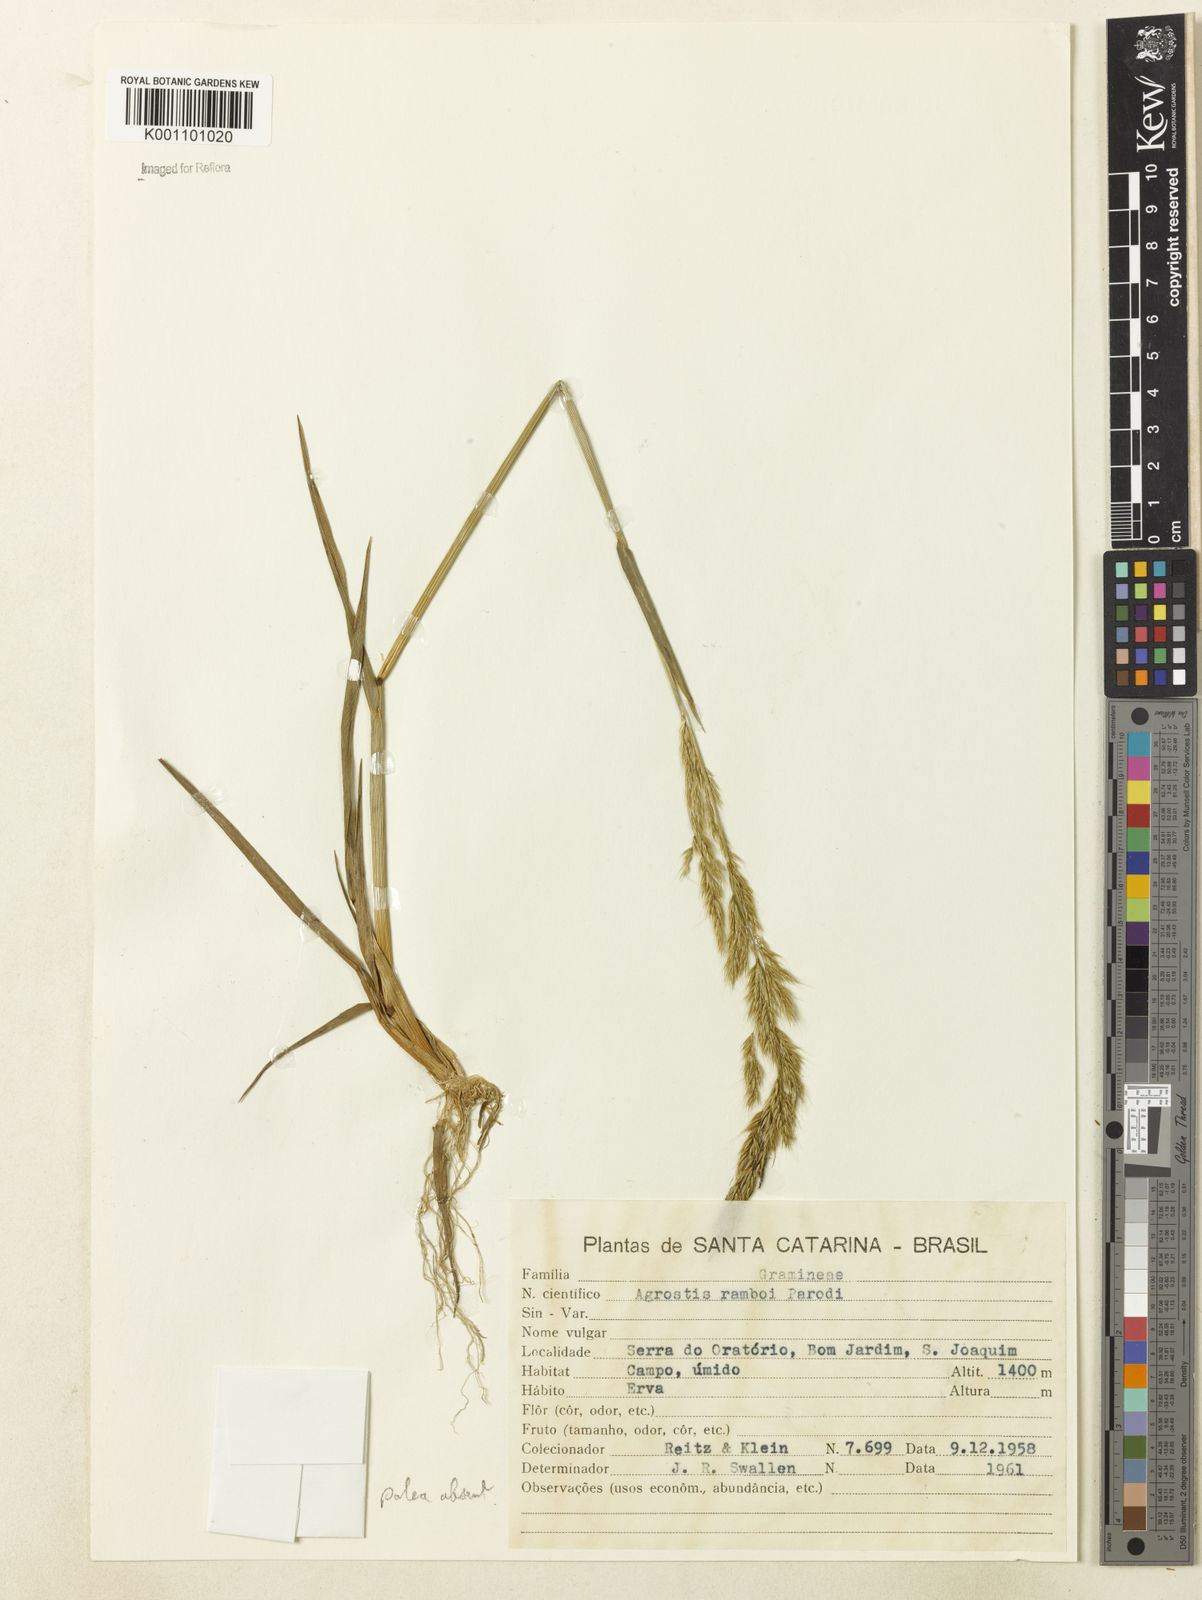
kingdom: Plantae
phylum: Tracheophyta
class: Liliopsida
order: Poales
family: Poaceae
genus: Agrostis
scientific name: Agrostis hygrometrica
